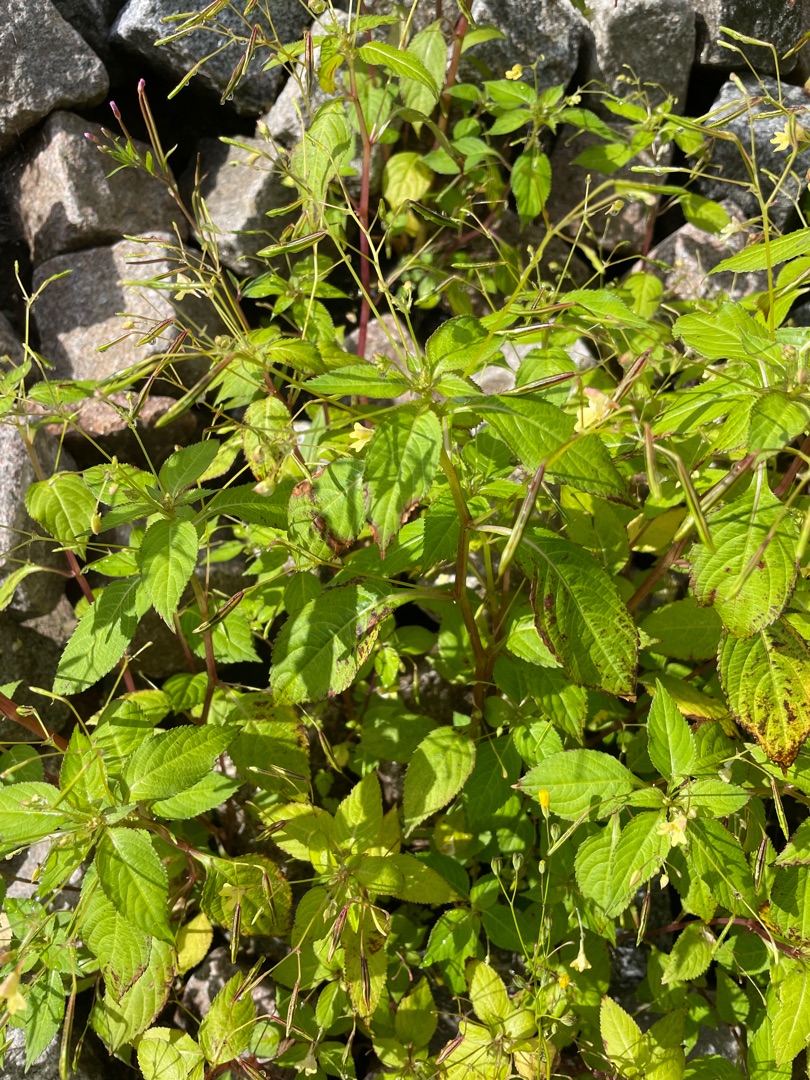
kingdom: Plantae
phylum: Tracheophyta
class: Magnoliopsida
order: Ericales
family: Balsaminaceae
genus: Impatiens
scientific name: Impatiens parviflora
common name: Småblomstret balsamin
